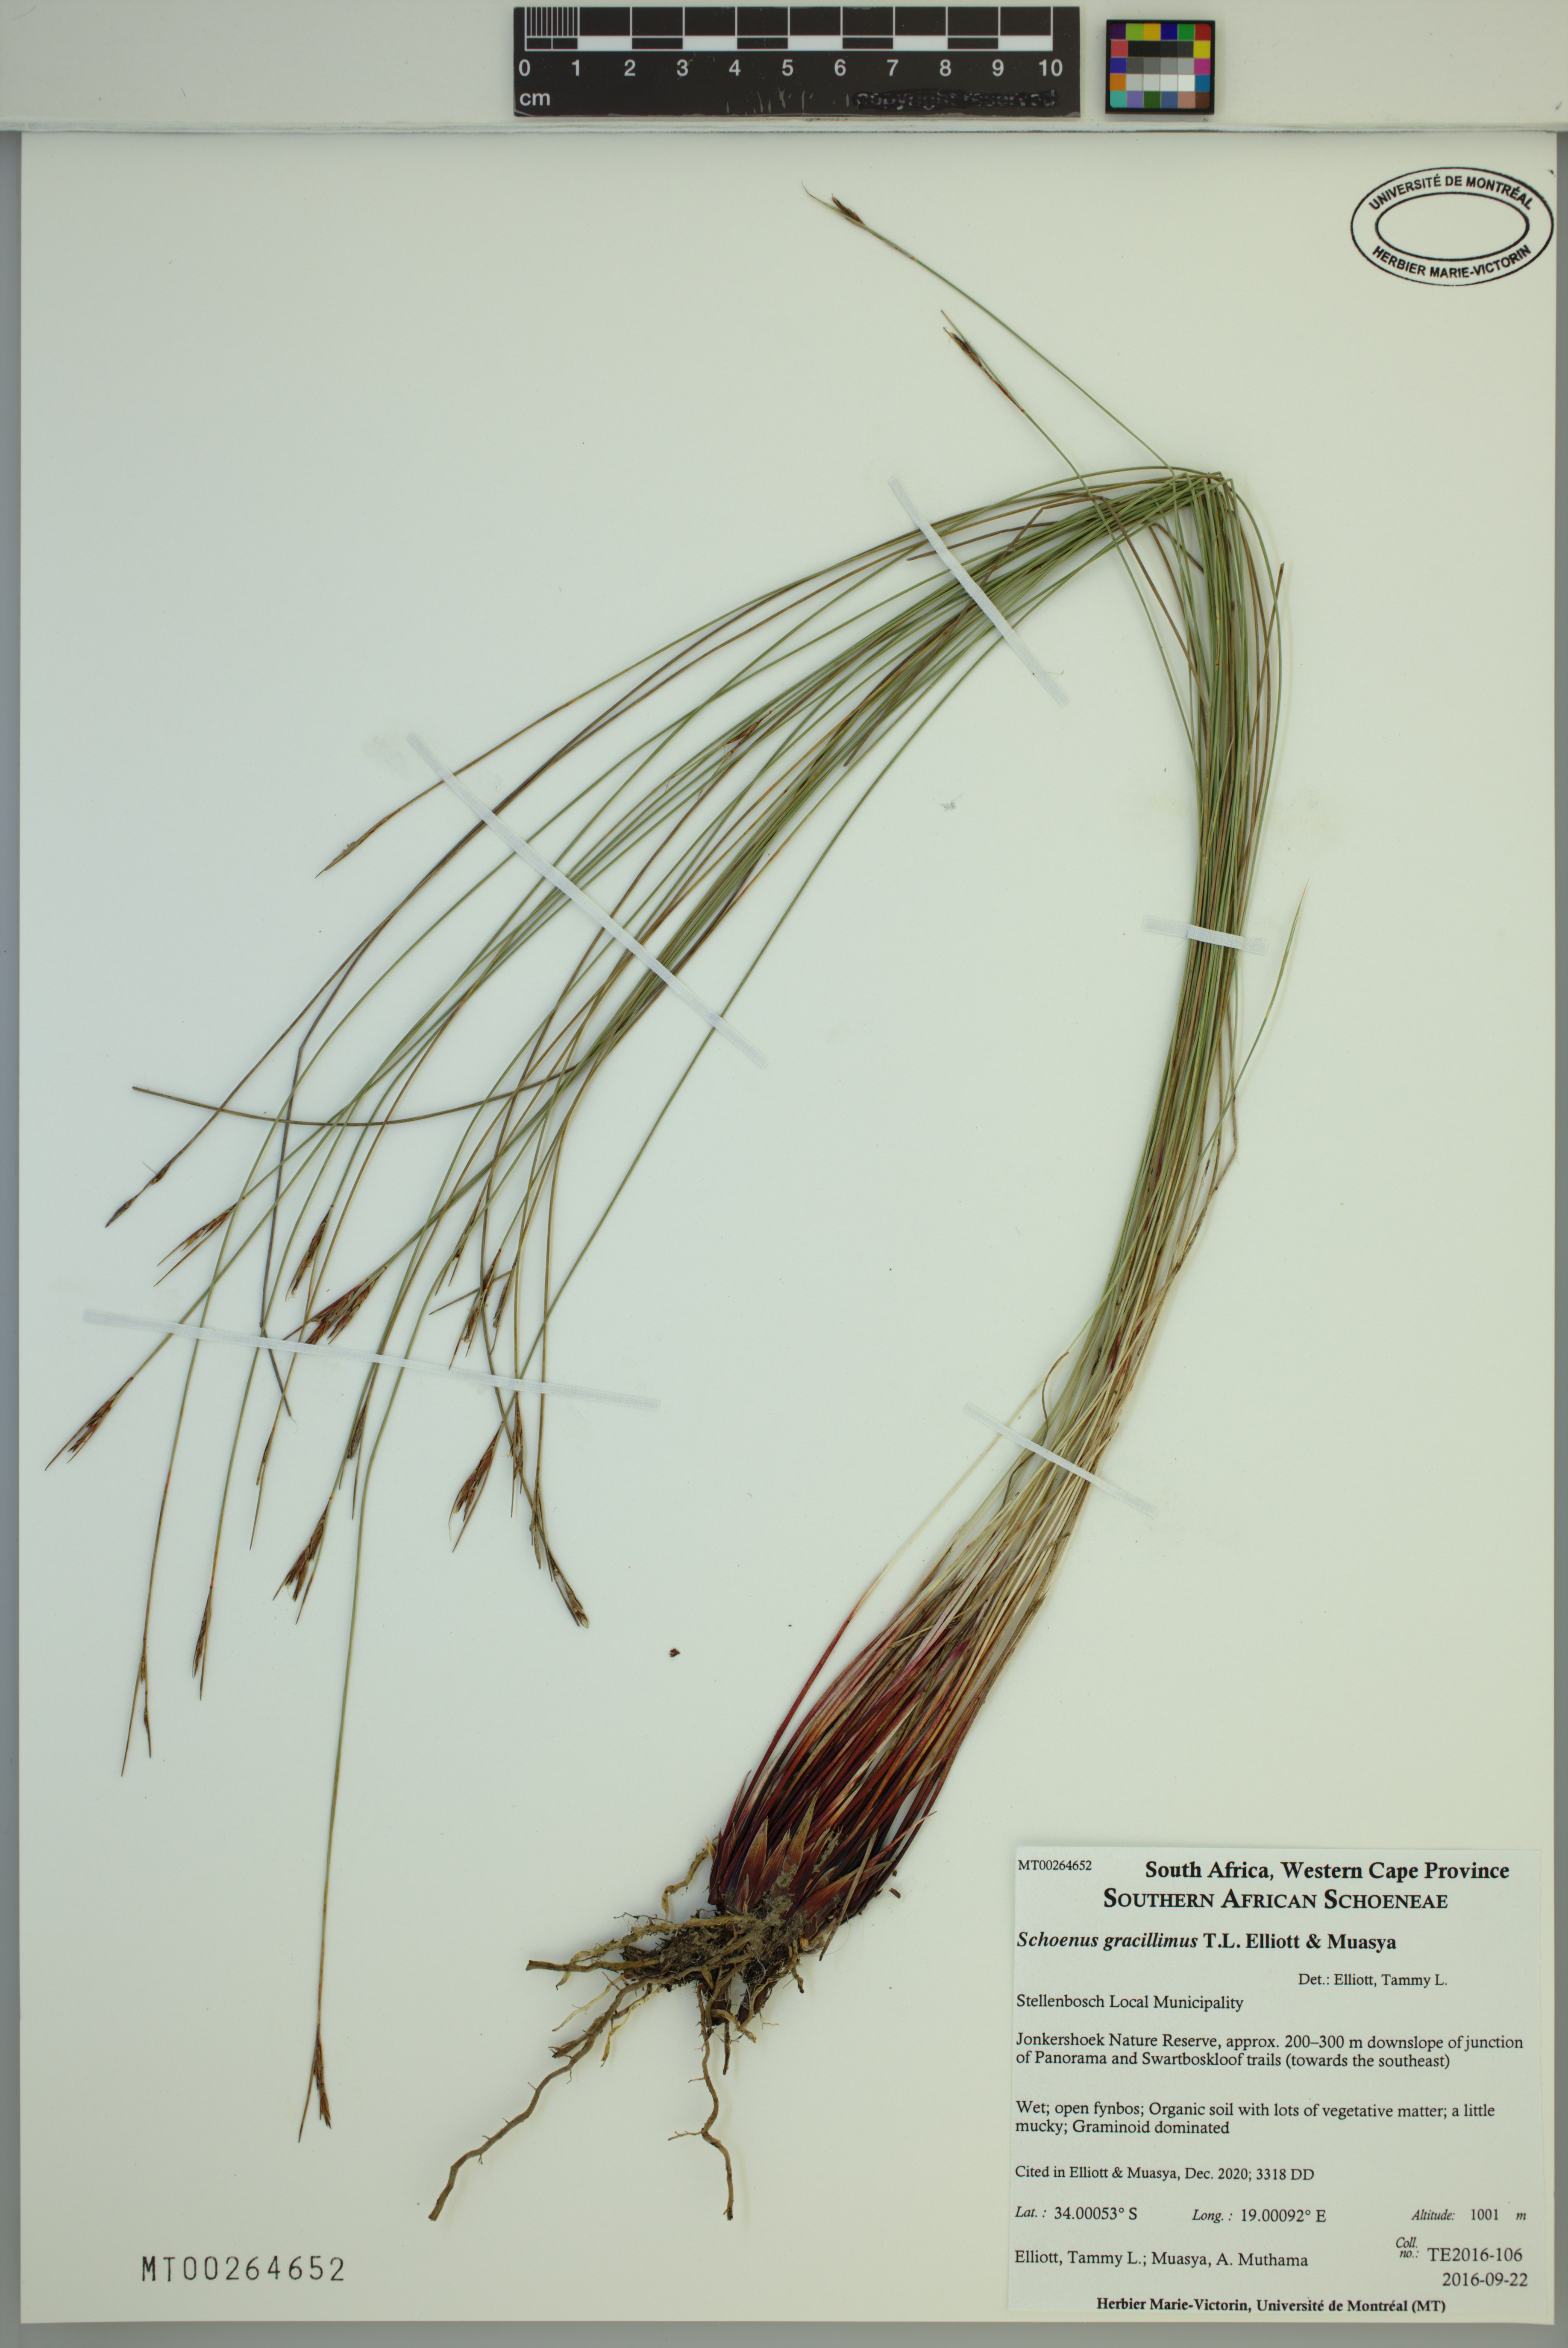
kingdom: Plantae
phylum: Tracheophyta
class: Liliopsida
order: Poales
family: Cyperaceae
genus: Schoenus
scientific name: Schoenus gracillimus
